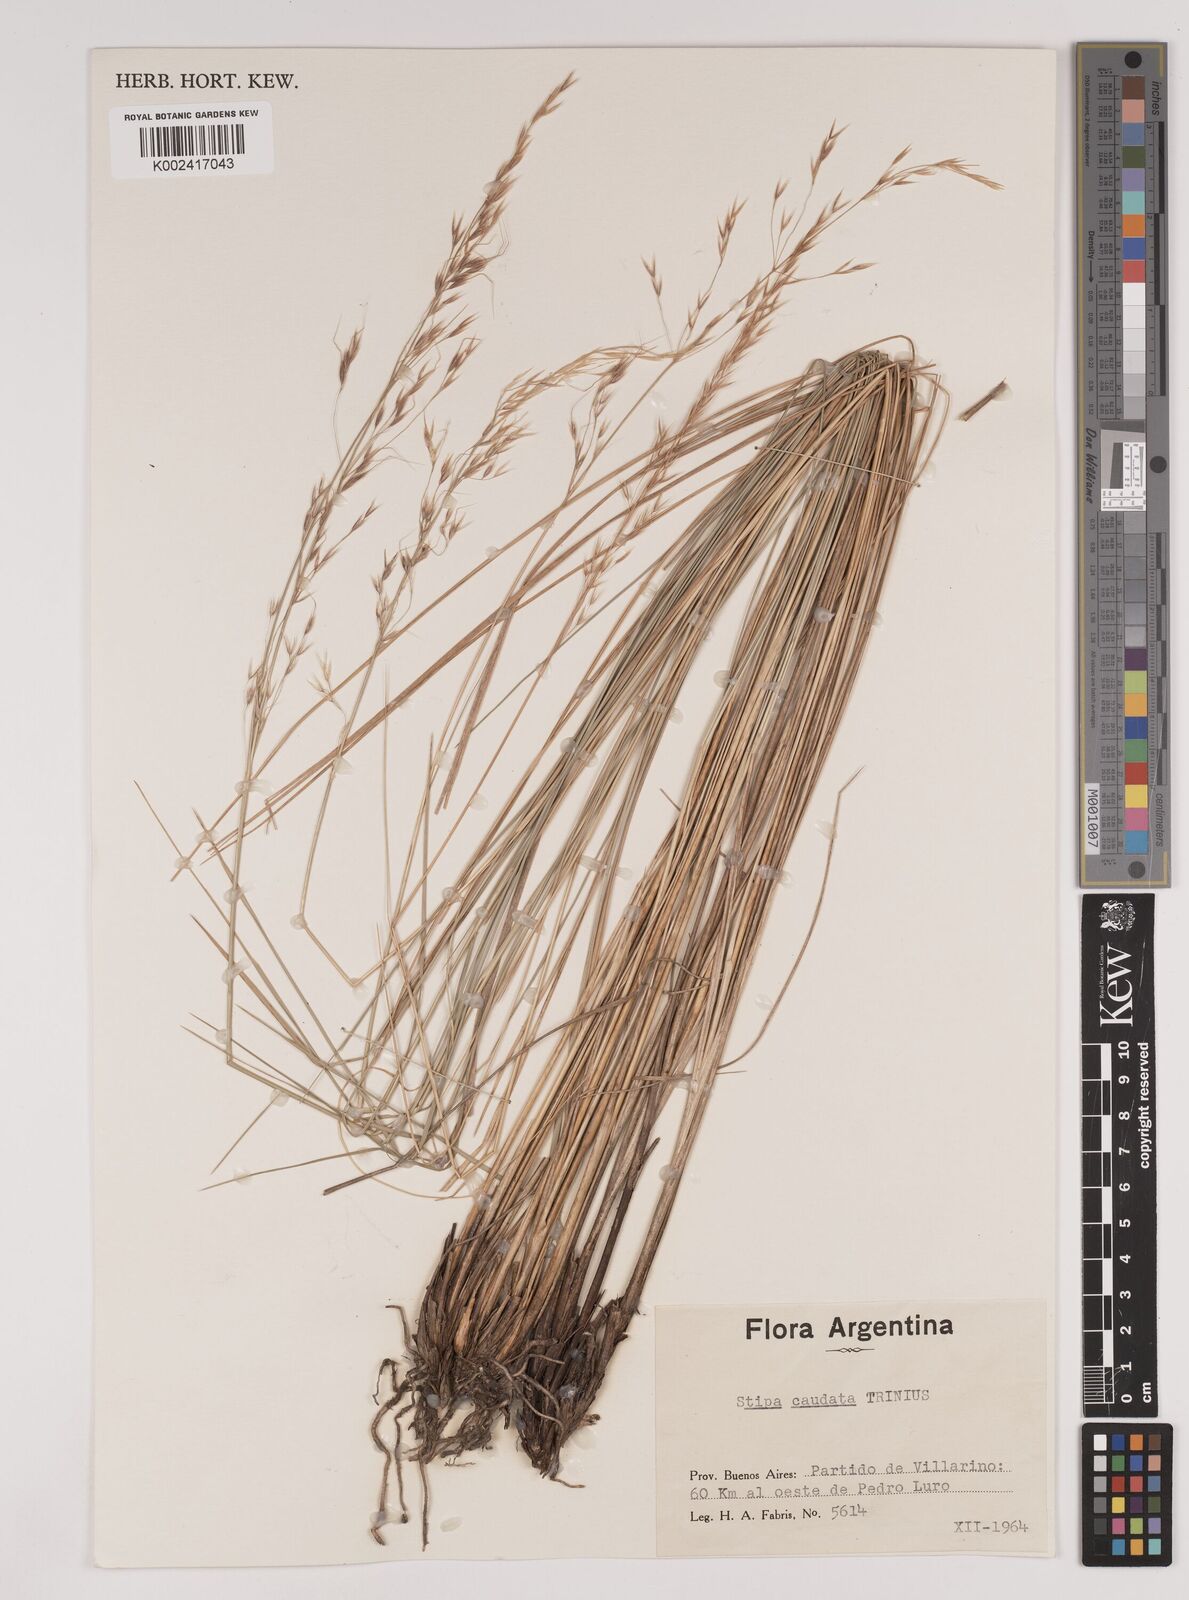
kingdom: Plantae
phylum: Tracheophyta
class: Liliopsida
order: Poales
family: Poaceae
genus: Amelichloa
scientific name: Amelichloa caudata
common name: Chilean ricegrass
